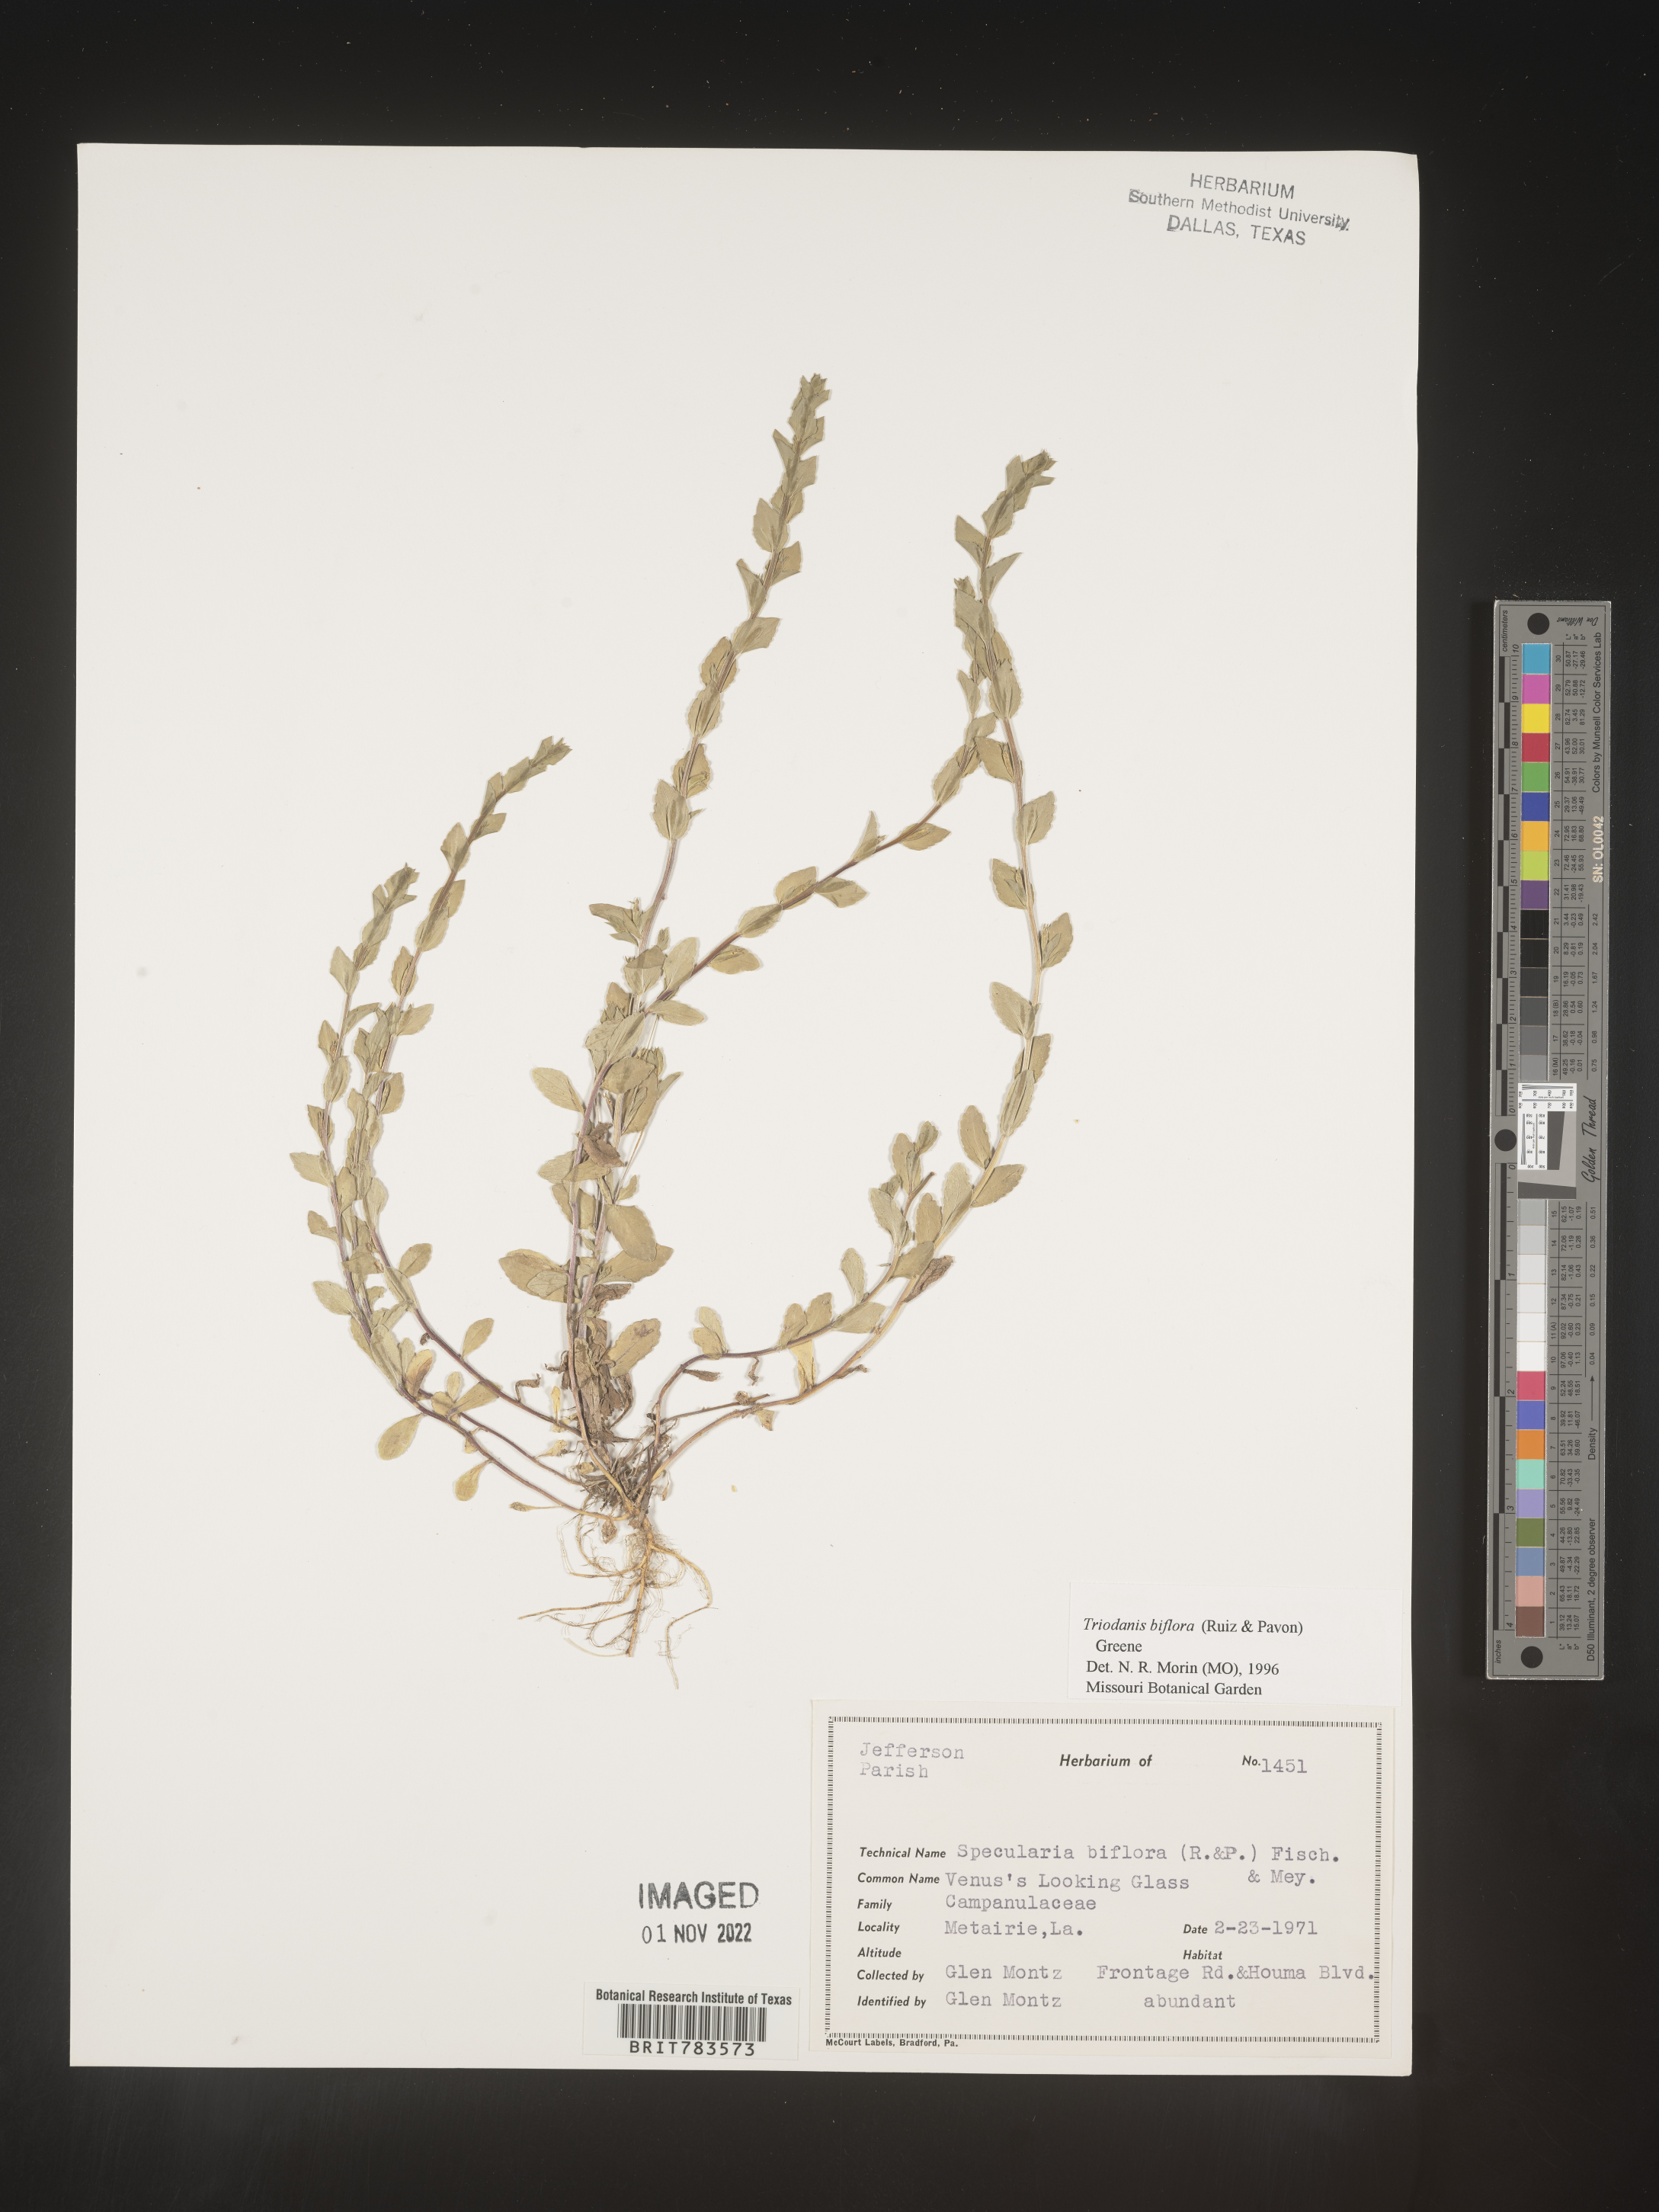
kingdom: Plantae
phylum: Tracheophyta
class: Magnoliopsida
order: Asterales
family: Campanulaceae
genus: Triodanis
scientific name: Triodanis perfoliata
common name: Clasping venus' looking-glass
